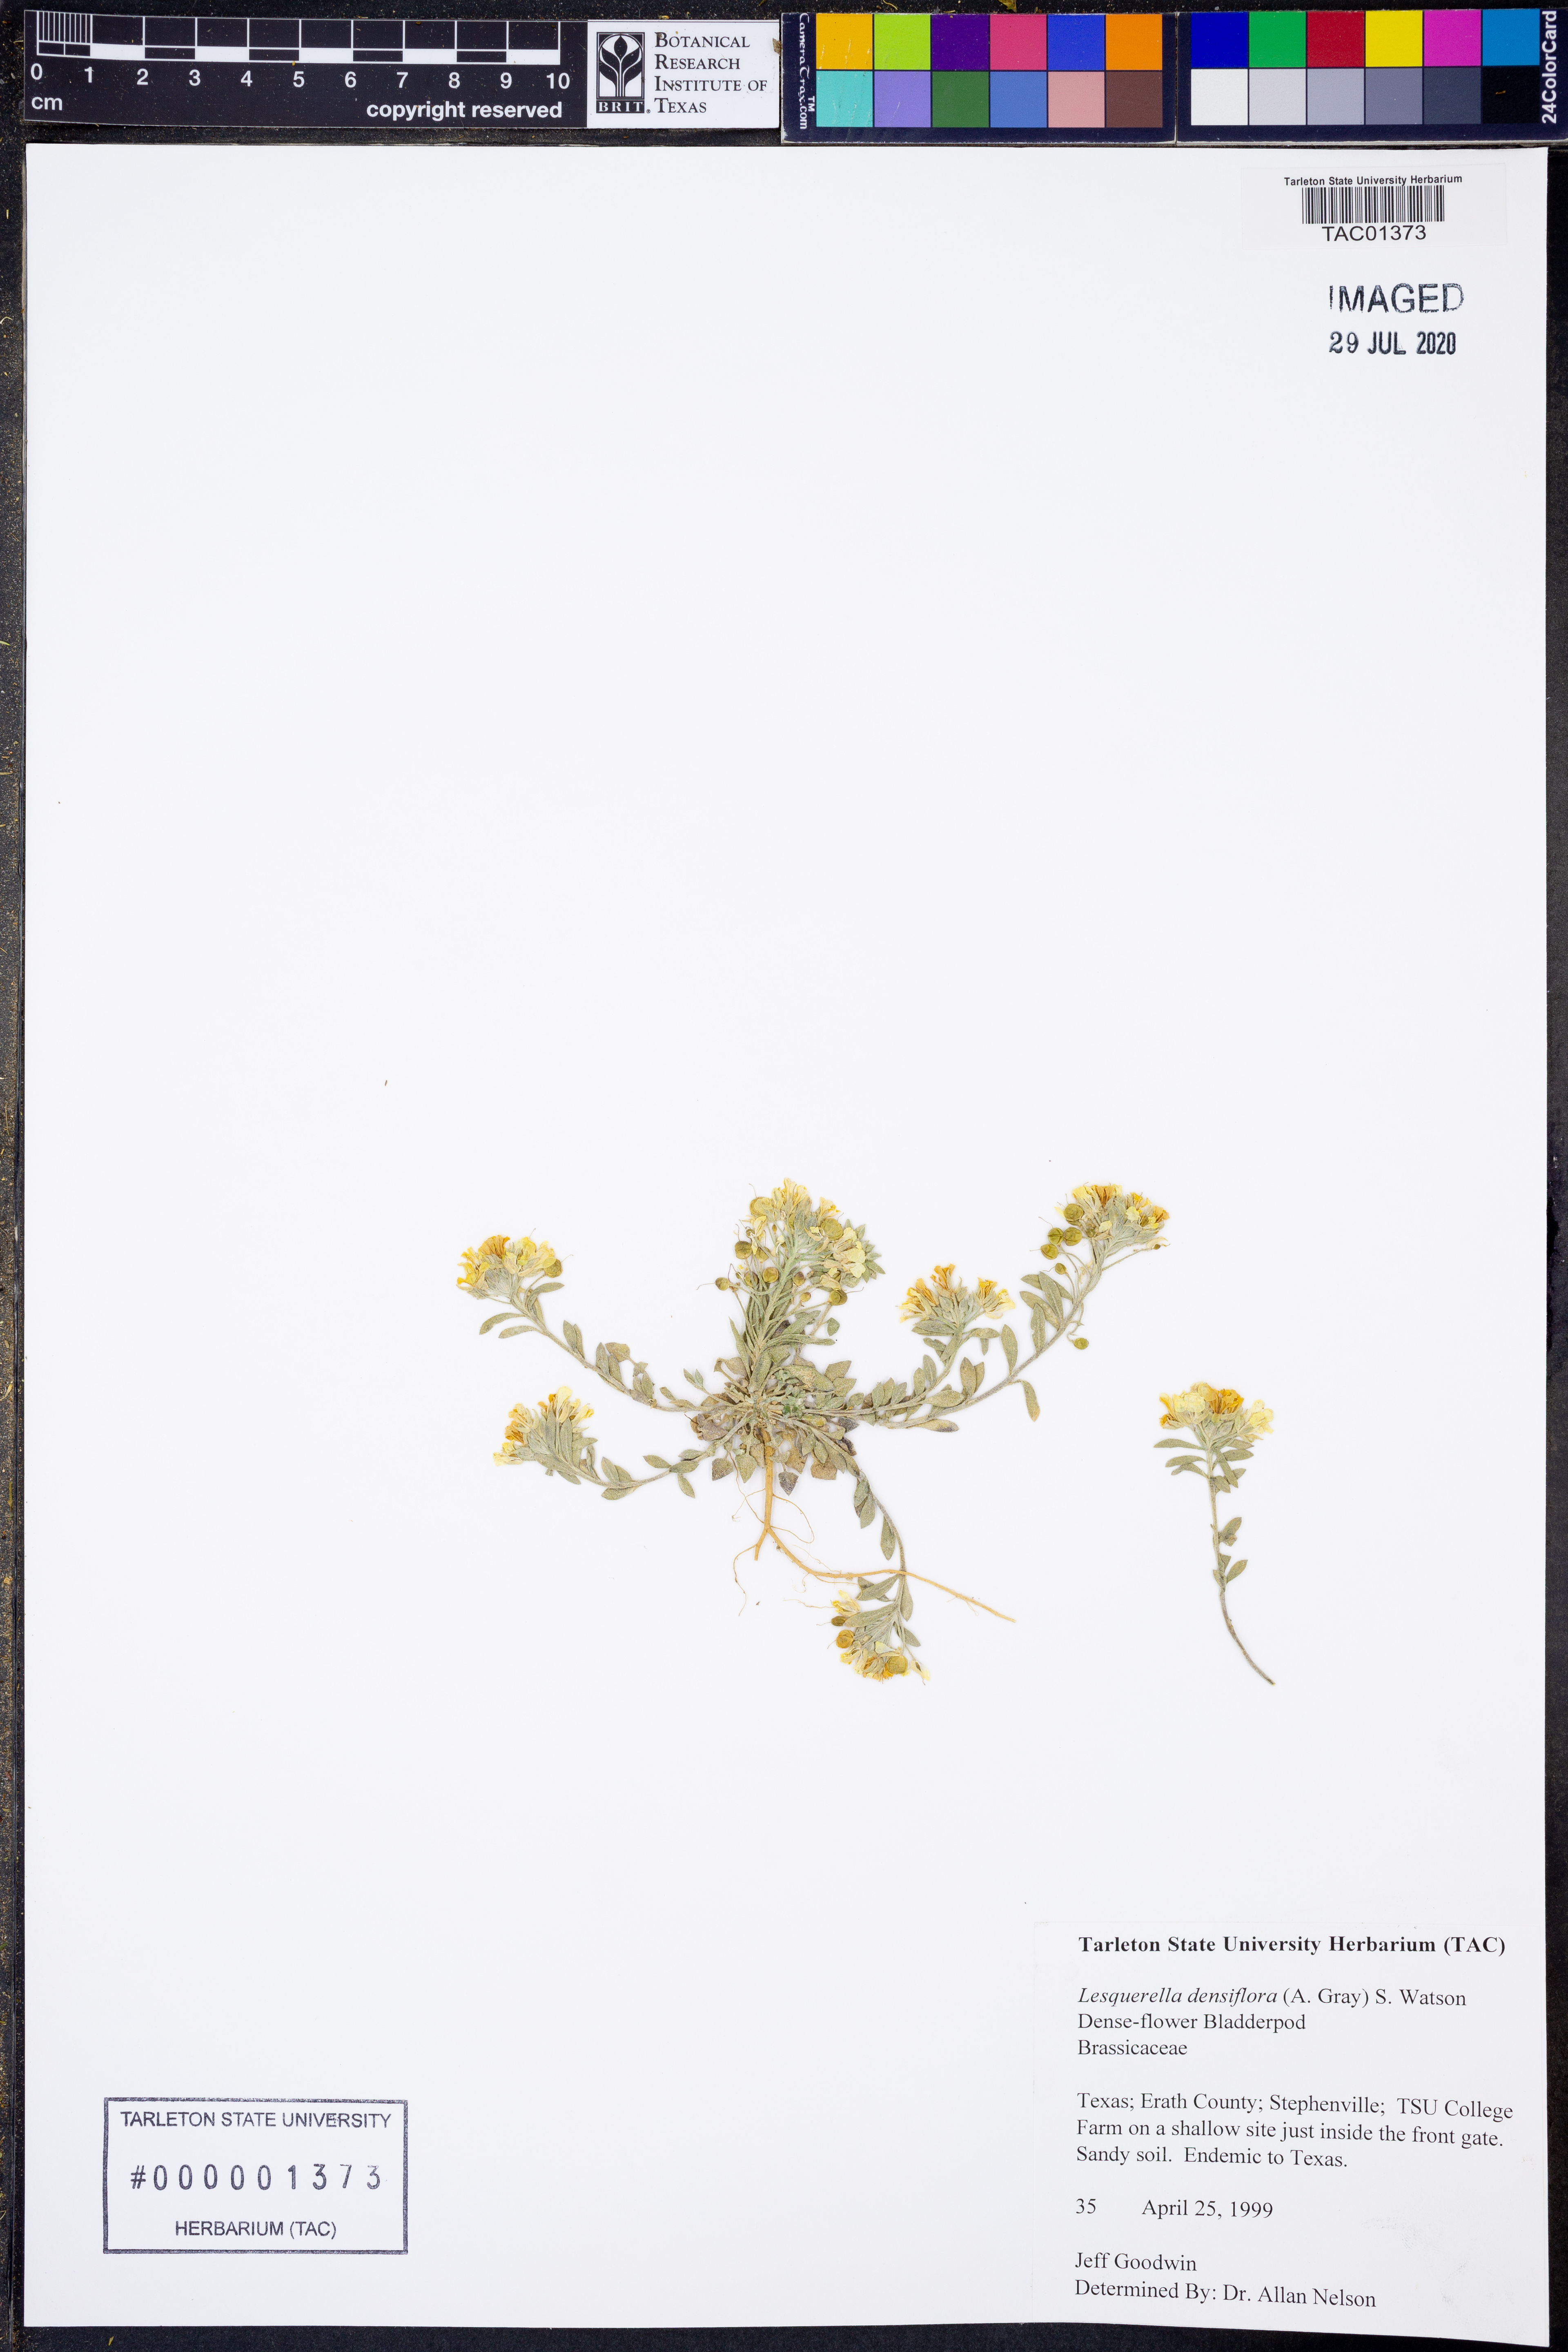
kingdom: Plantae
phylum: Tracheophyta
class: Magnoliopsida
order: Brassicales
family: Brassicaceae
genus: Physaria
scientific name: Physaria densiflora
